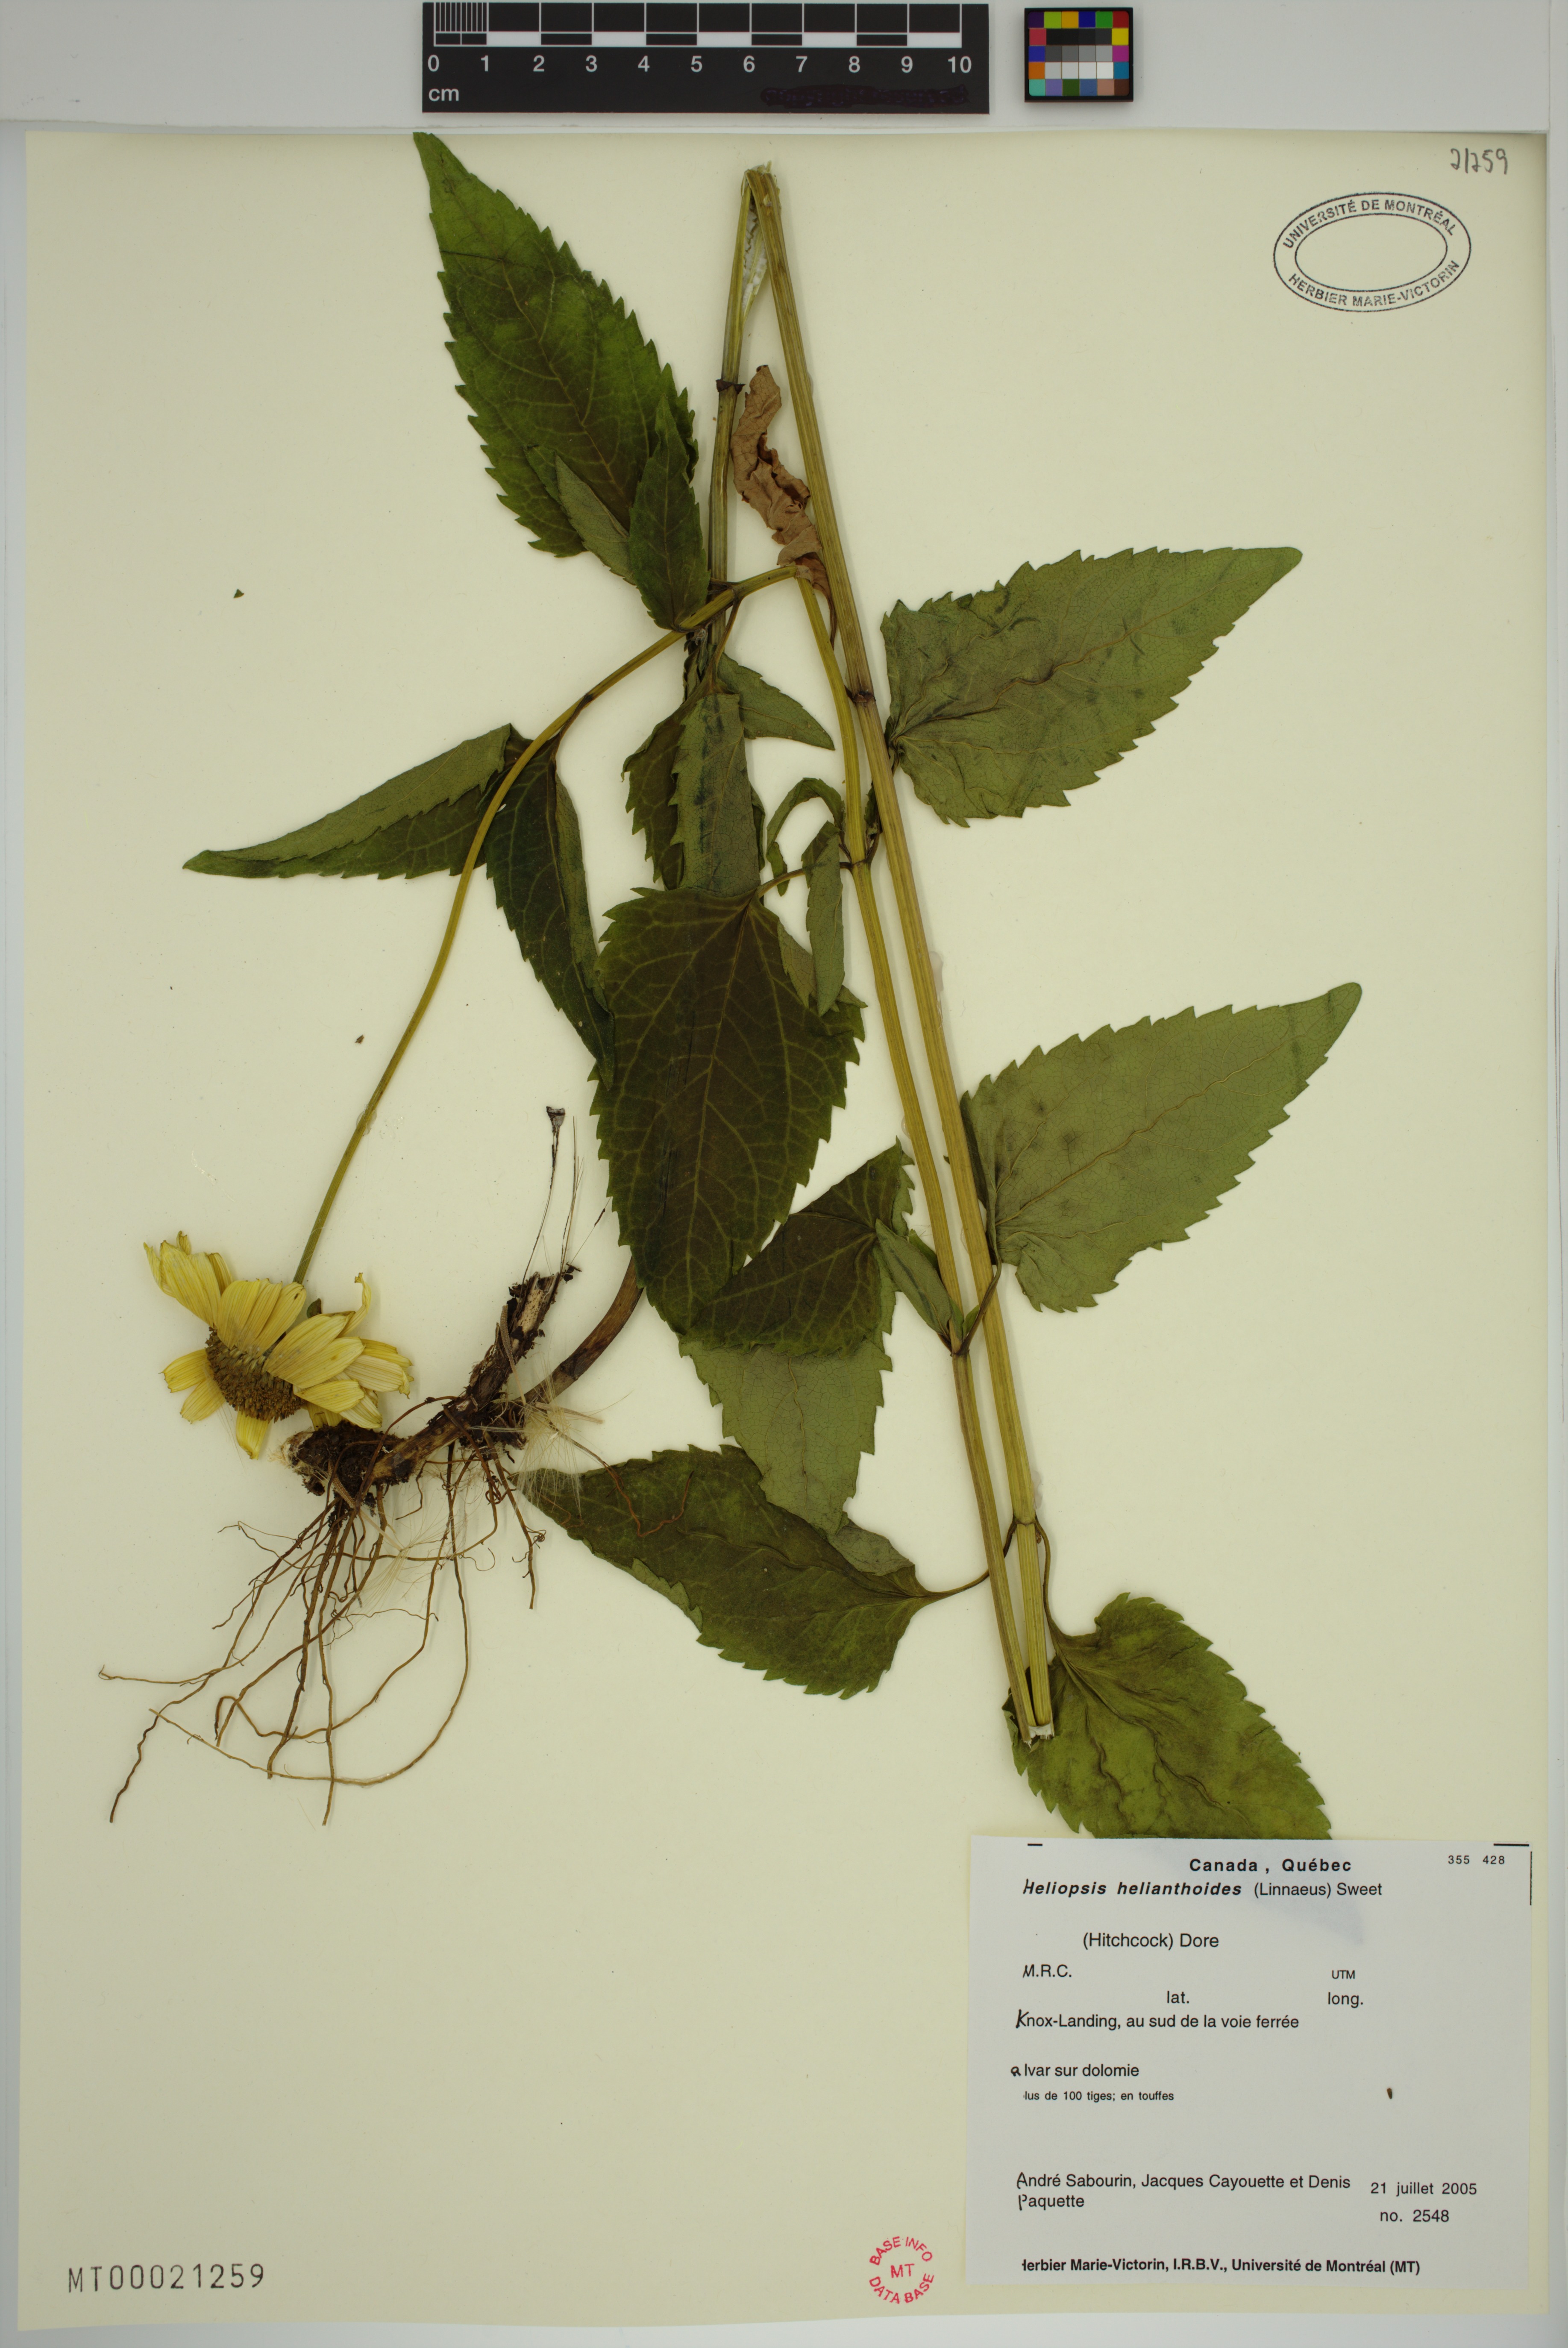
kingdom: Plantae
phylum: Tracheophyta
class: Magnoliopsida
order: Asterales
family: Asteraceae
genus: Heliopsis
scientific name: Heliopsis helianthoides
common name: False sunflower
